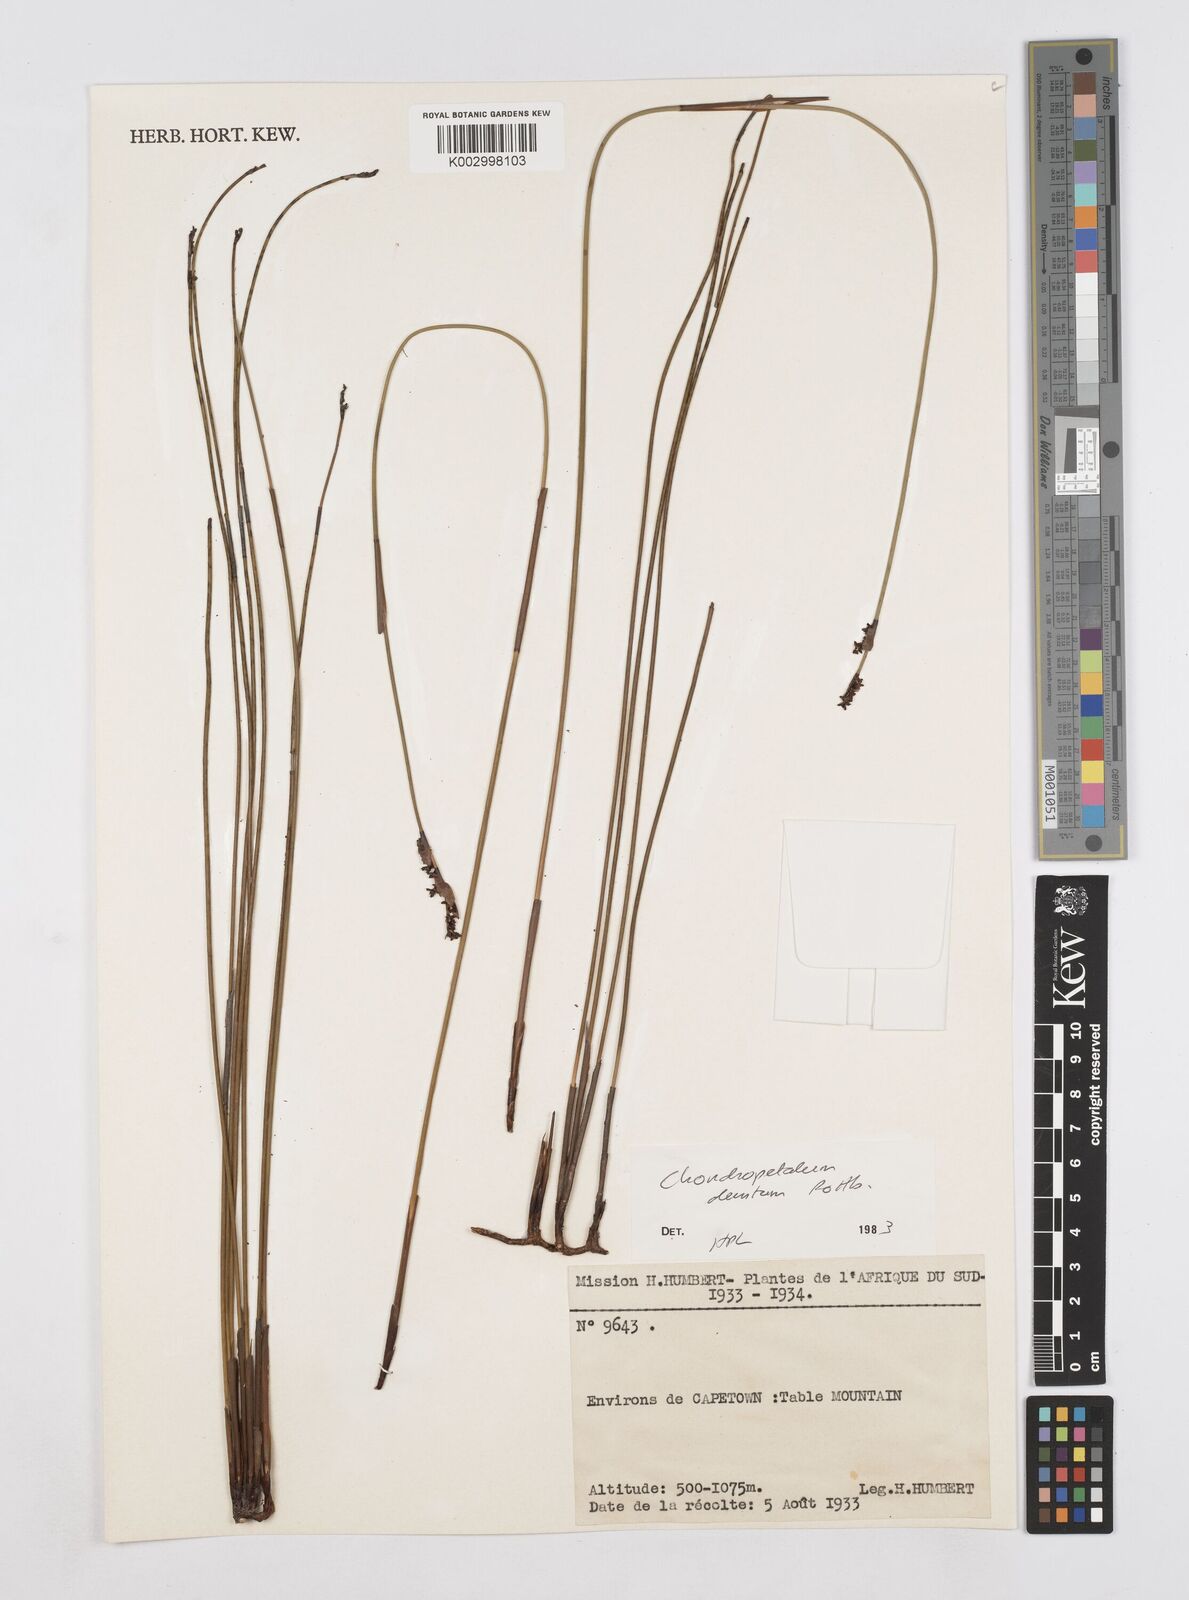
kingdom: Plantae
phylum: Tracheophyta
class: Liliopsida
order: Poales
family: Restionaceae
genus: Elegia
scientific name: Elegia deusta
